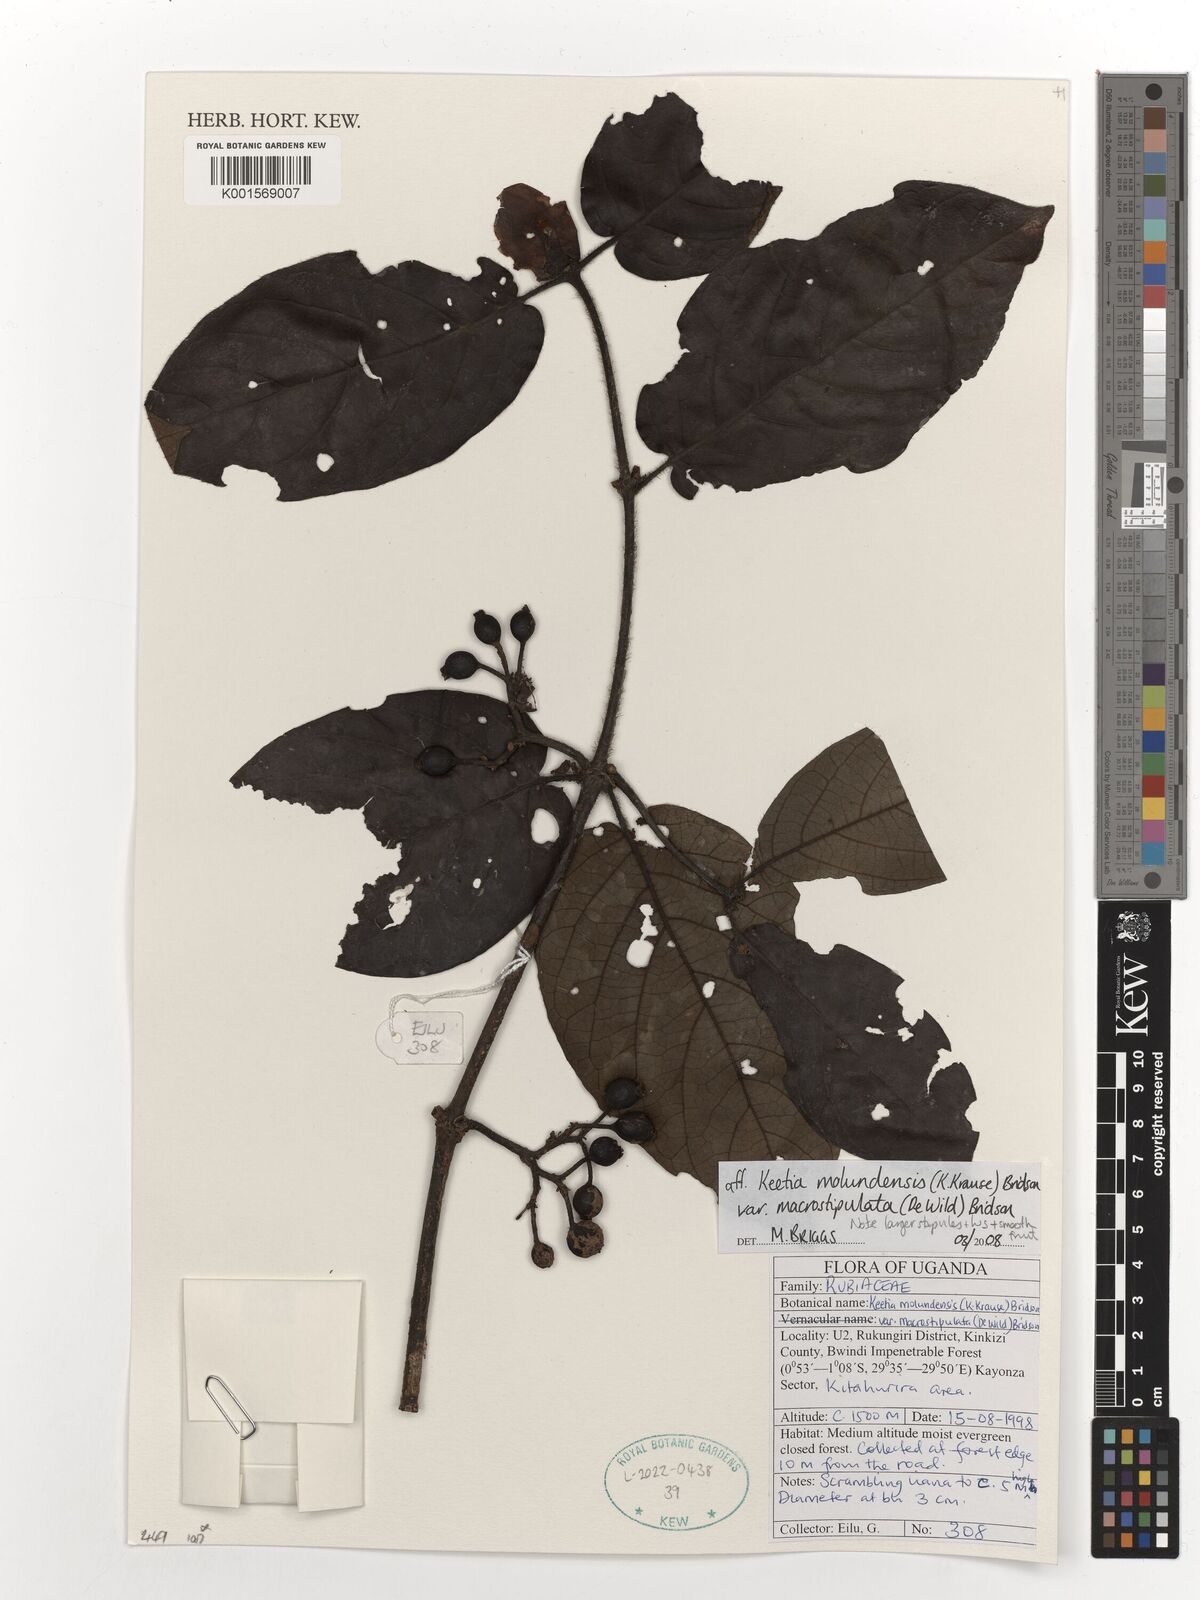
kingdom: Plantae
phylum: Tracheophyta
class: Magnoliopsida
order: Gentianales
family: Rubiaceae
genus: Keetia
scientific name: Keetia molundensis
